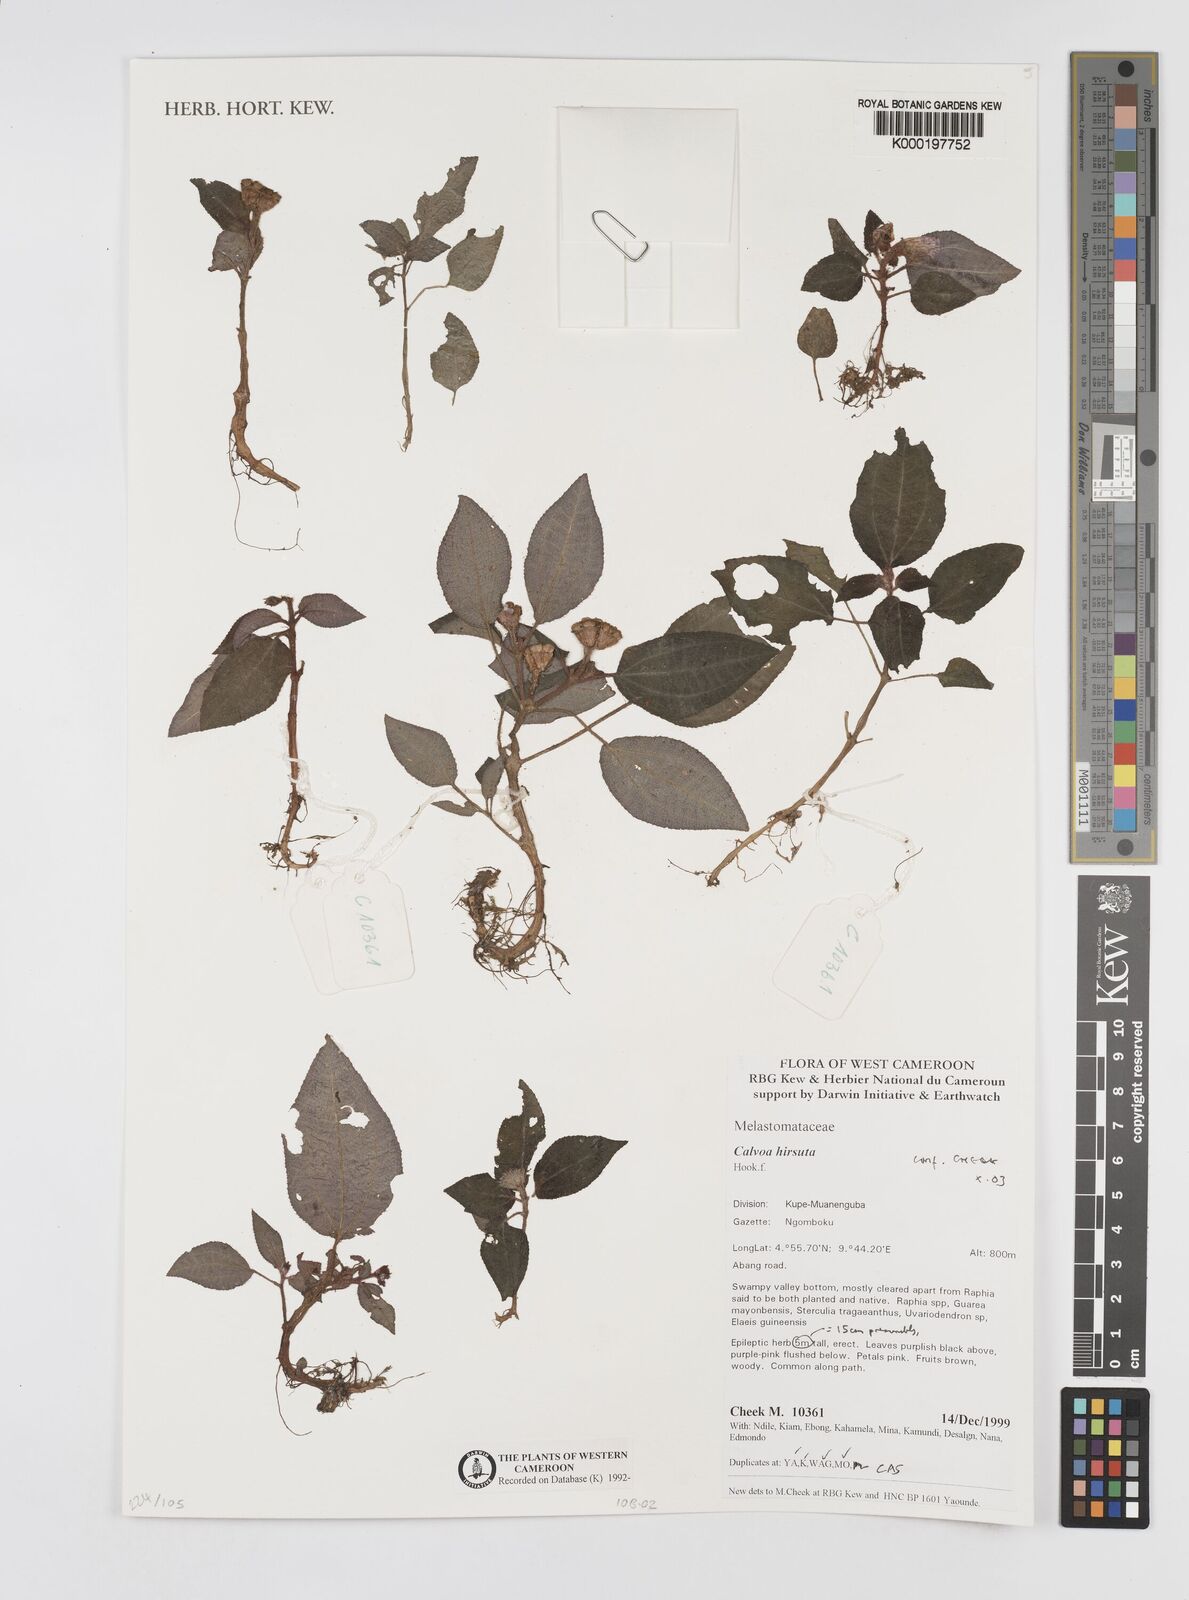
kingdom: Plantae
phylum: Tracheophyta
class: Magnoliopsida
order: Myrtales
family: Melastomataceae
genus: Calvoa
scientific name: Calvoa
